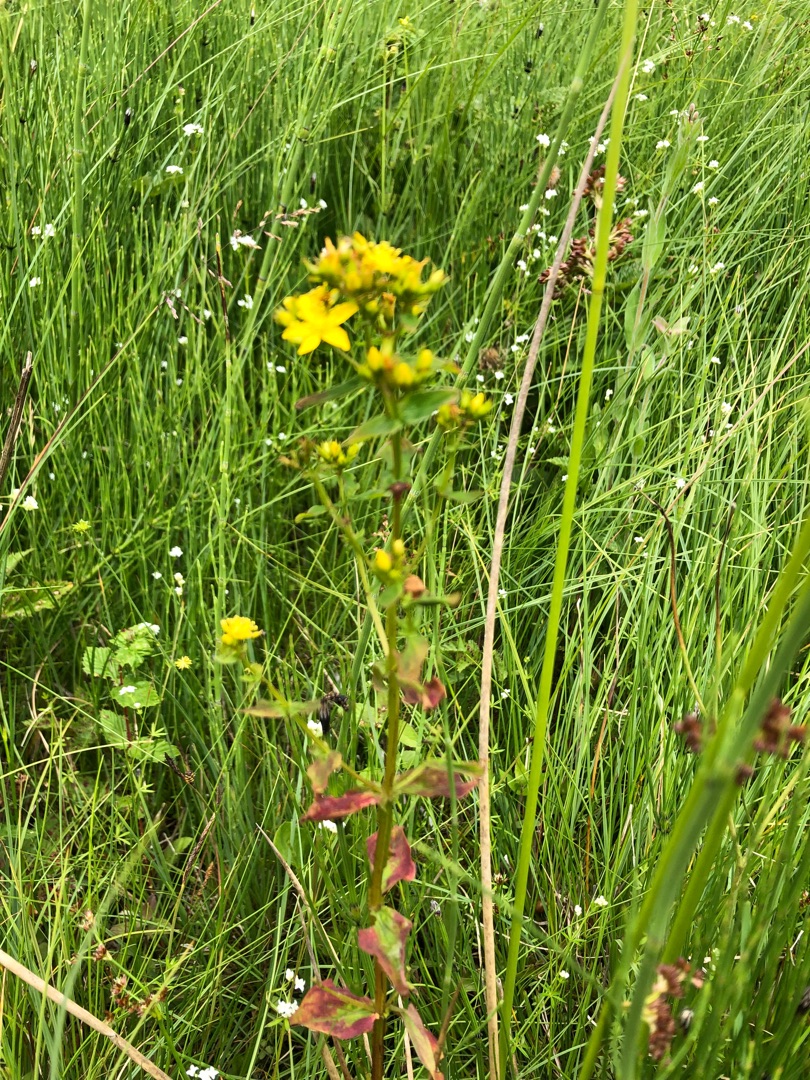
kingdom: Plantae
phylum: Tracheophyta
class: Magnoliopsida
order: Malpighiales
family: Hypericaceae
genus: Hypericum
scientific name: Hypericum tetrapterum
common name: Vinget perikon
